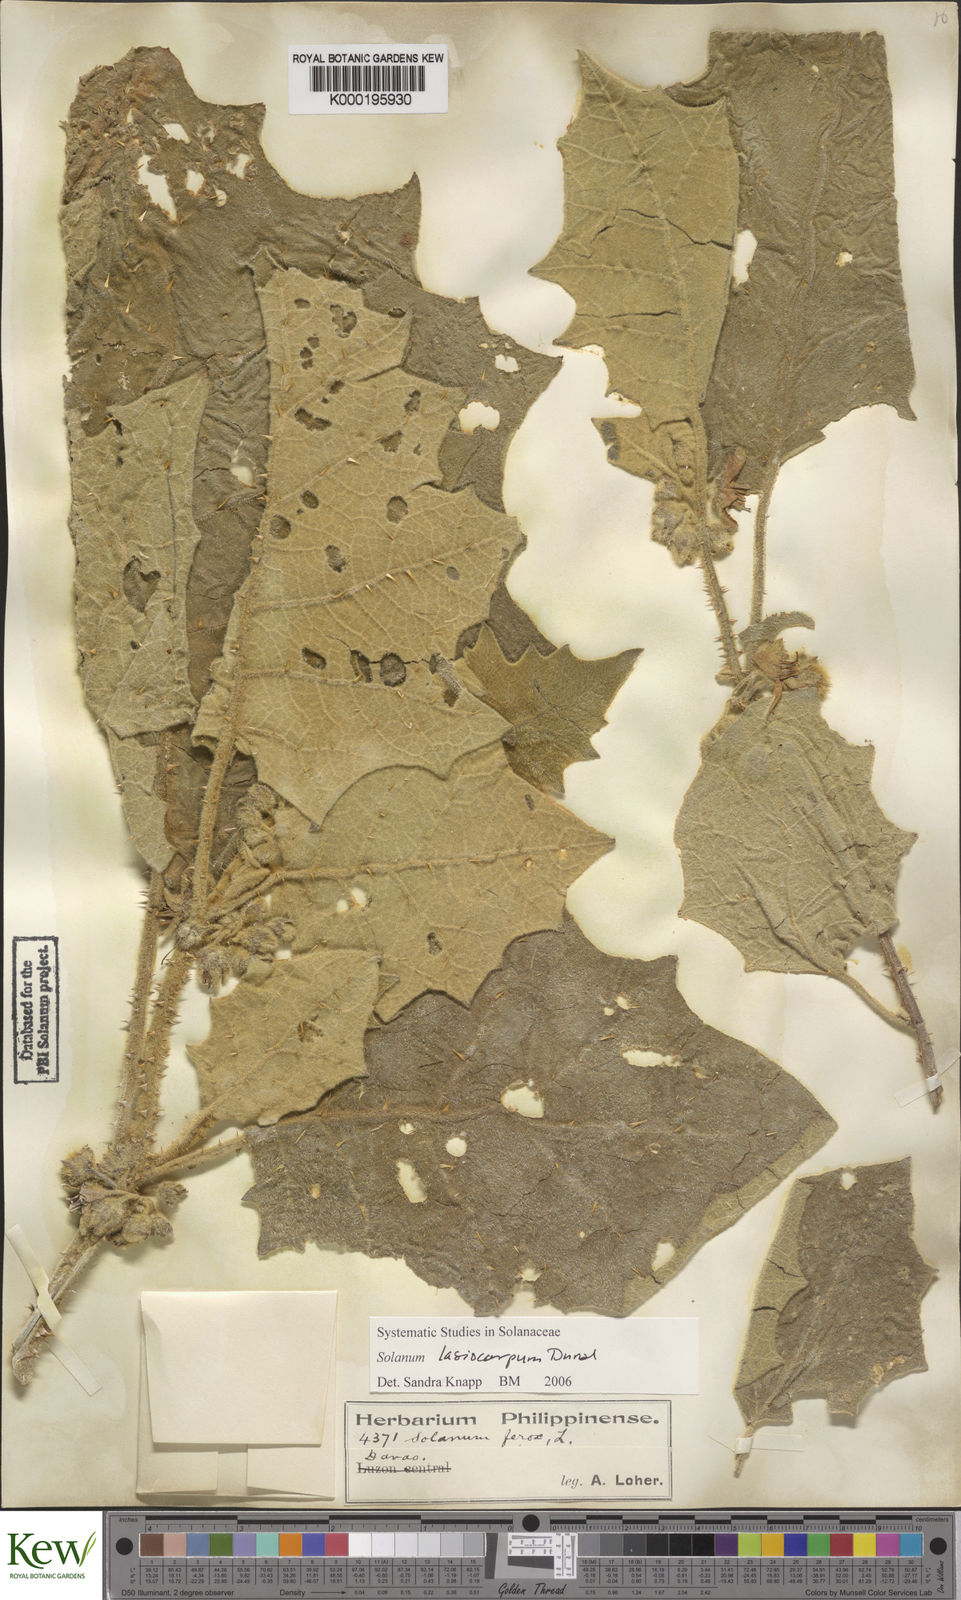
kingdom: Plantae
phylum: Tracheophyta
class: Magnoliopsida
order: Solanales
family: Solanaceae
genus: Solanum
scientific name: Solanum lasiocarpum
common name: Indian nightshade
